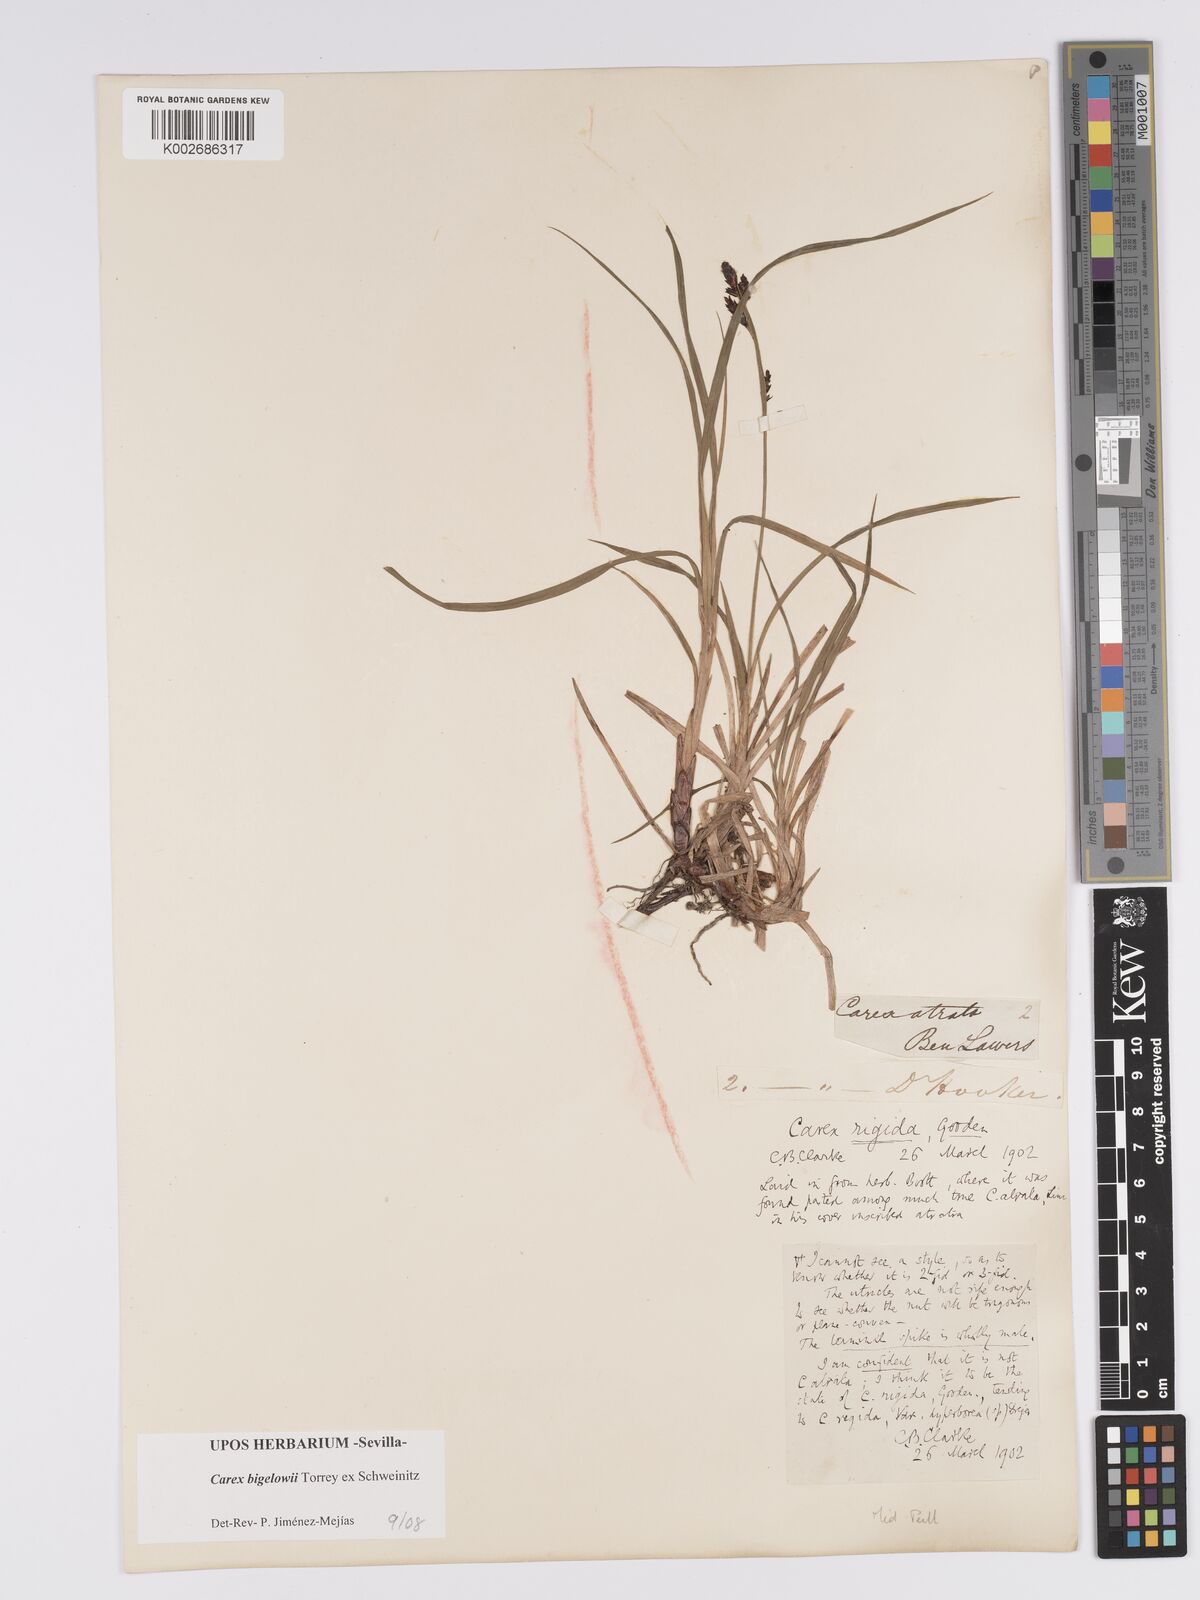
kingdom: Plantae
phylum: Tracheophyta
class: Liliopsida
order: Poales
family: Cyperaceae
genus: Carex
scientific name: Carex bigelowii
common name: Stiff sedge
